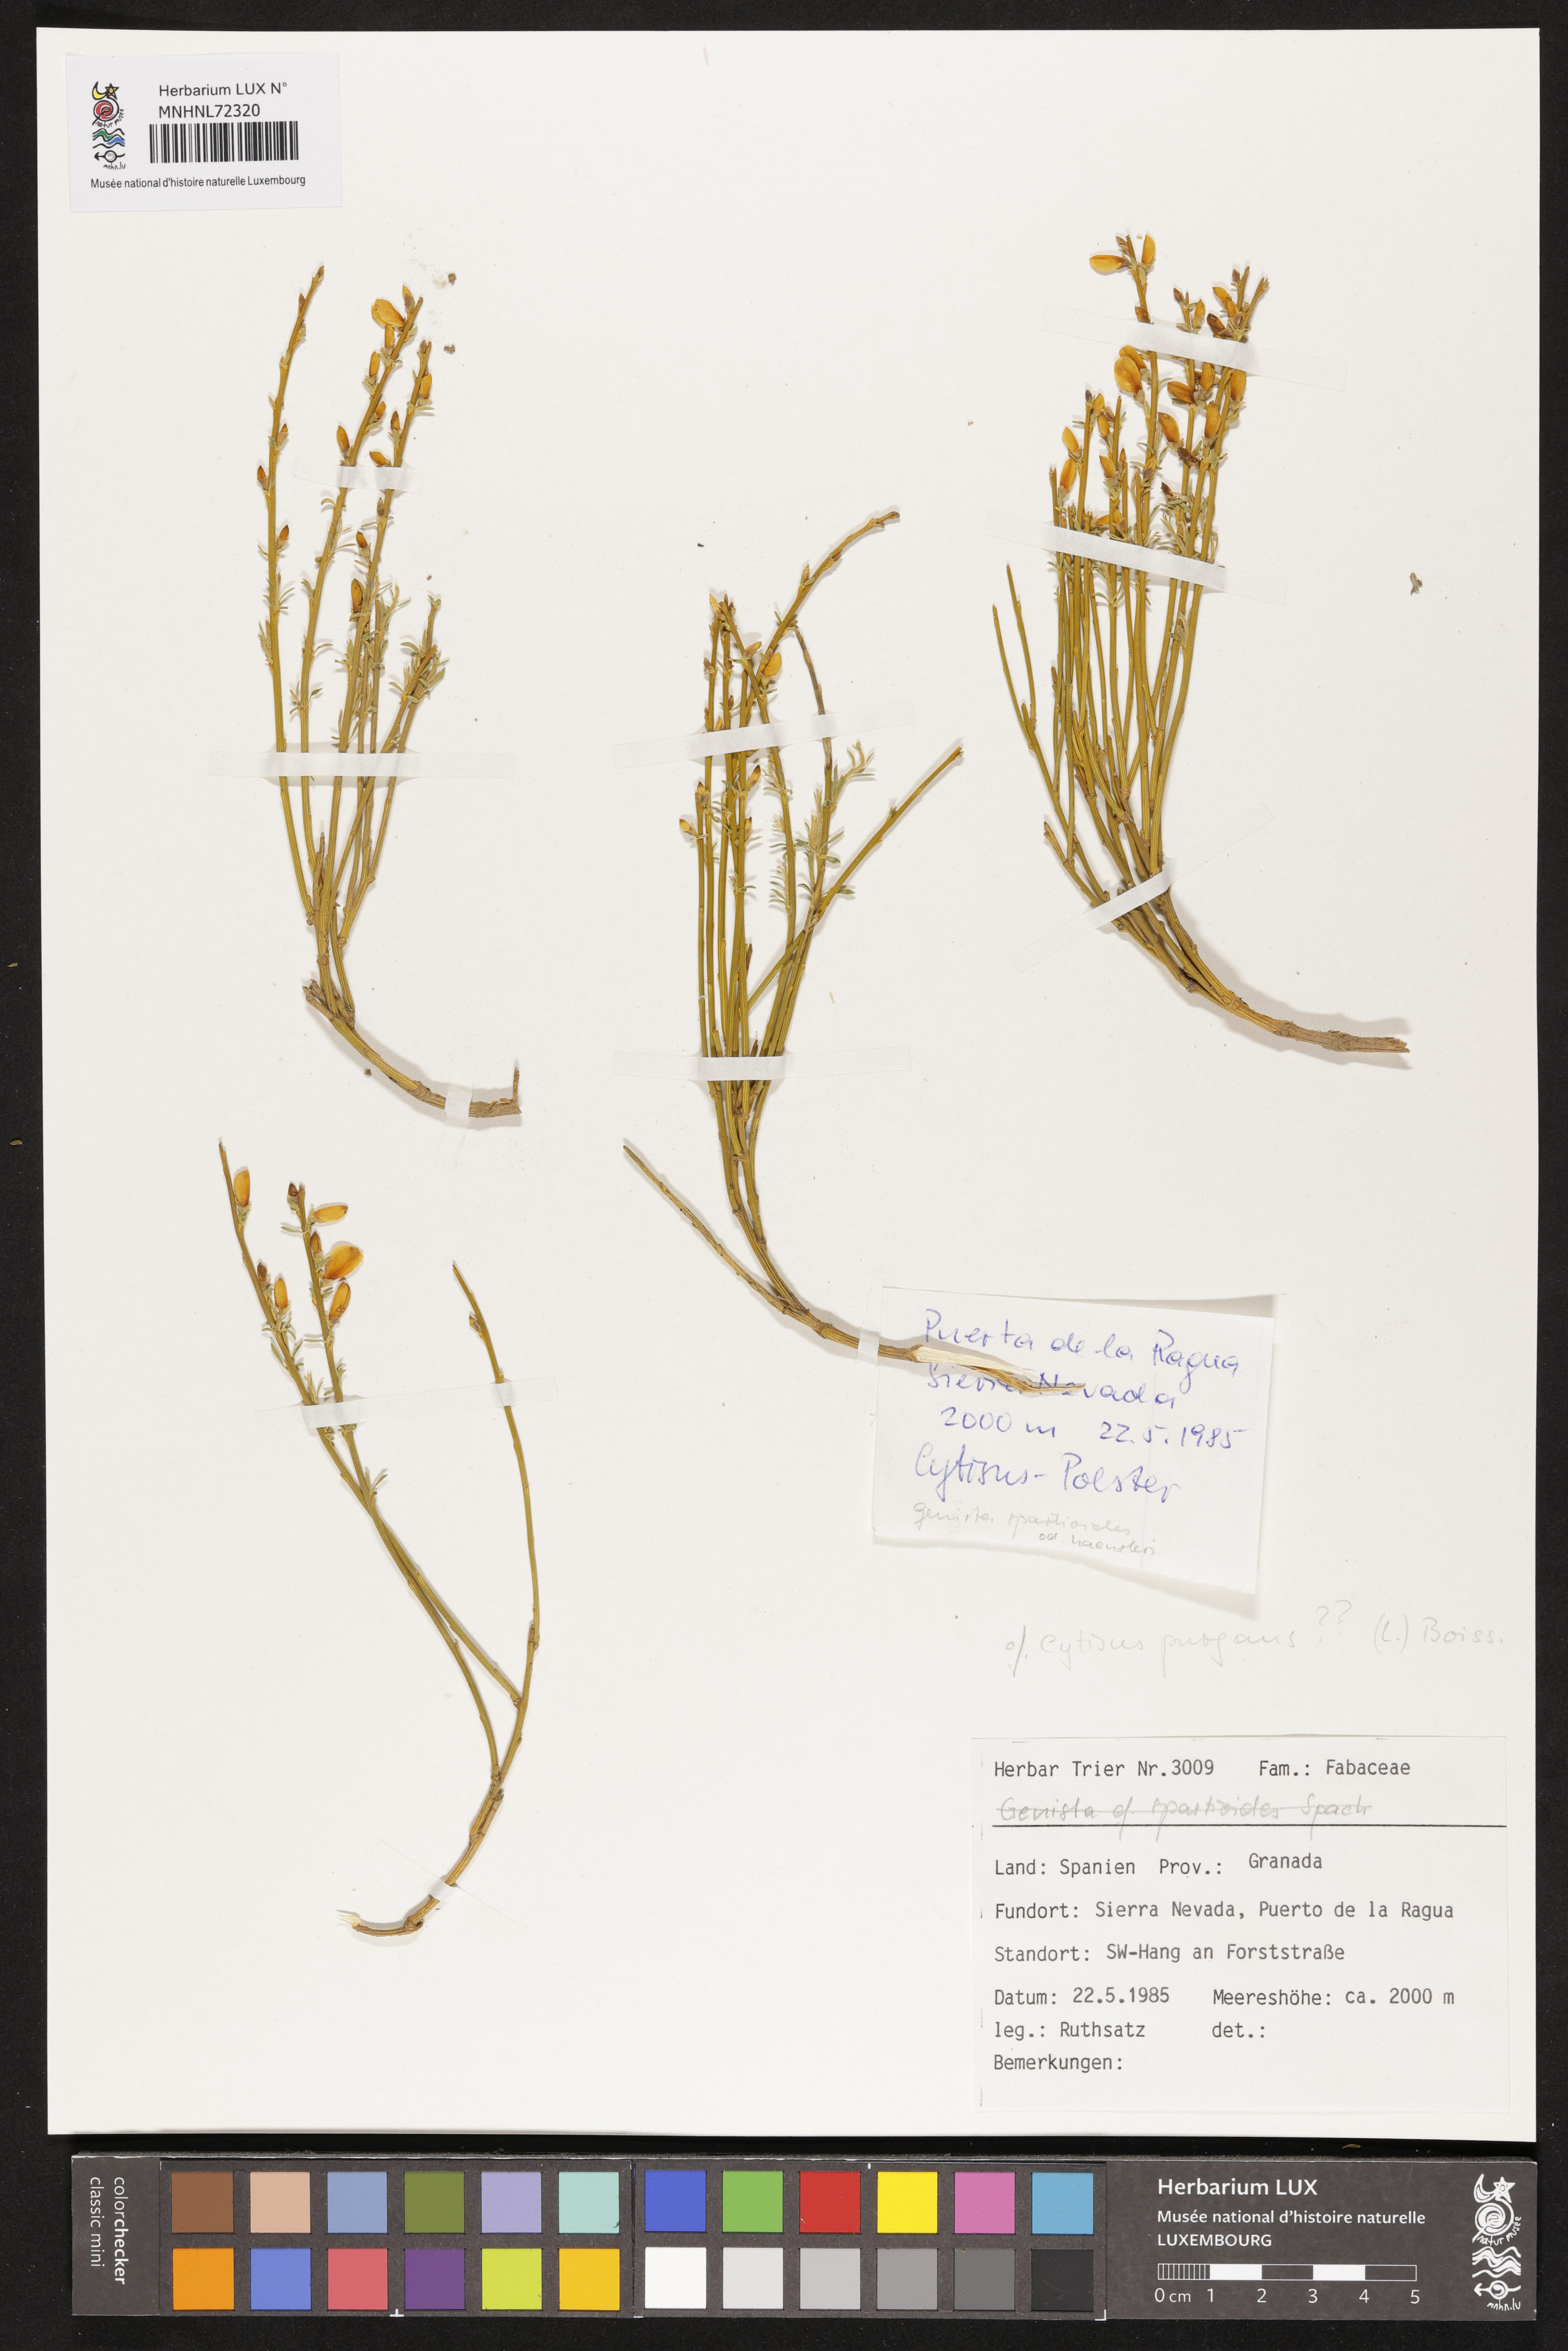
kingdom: Plantae
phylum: Tracheophyta
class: Magnoliopsida
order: Fabales
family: Fabaceae
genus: Genista
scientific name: Genista scorpius
